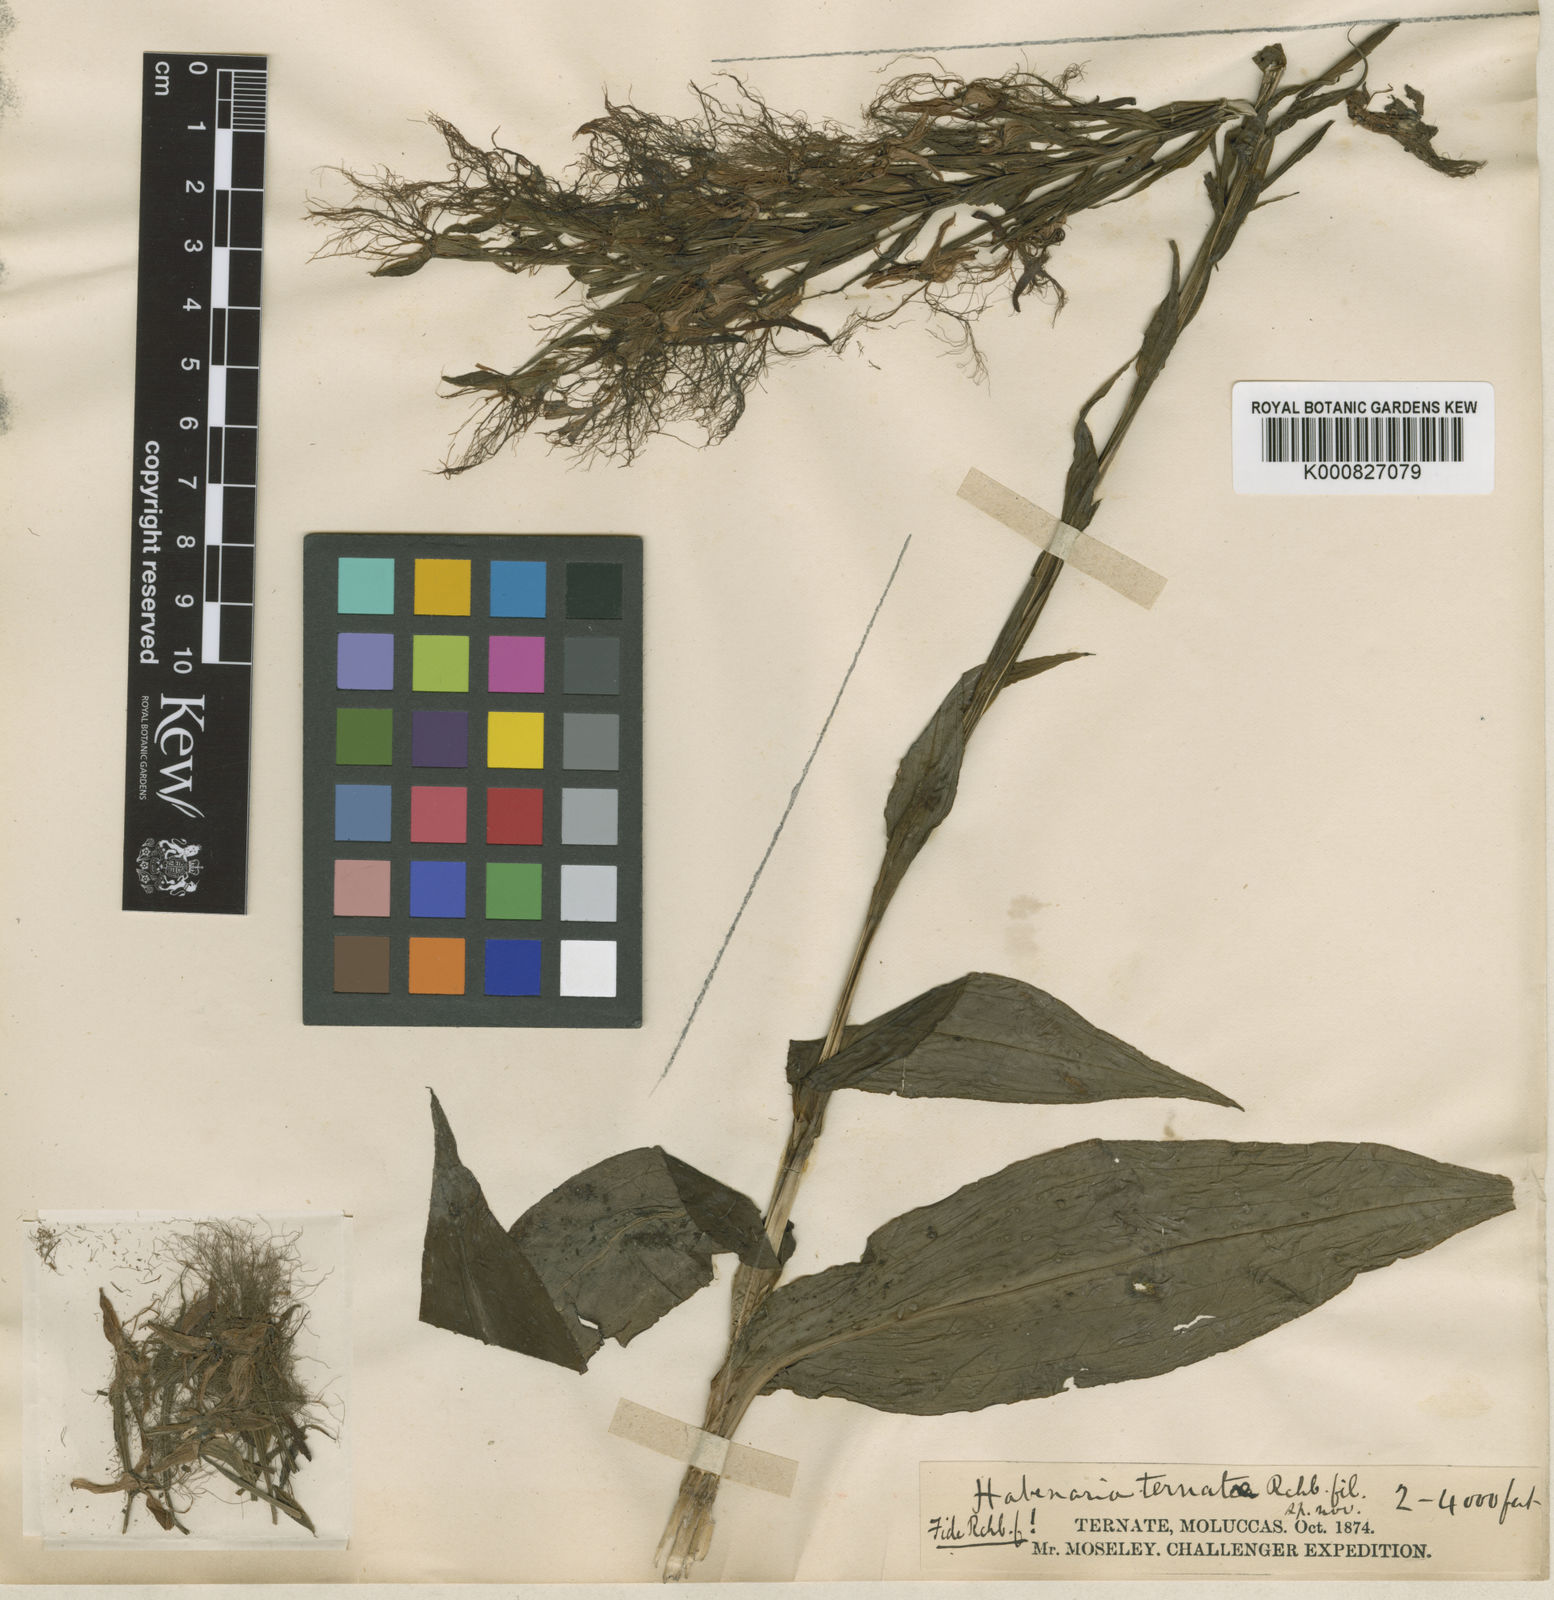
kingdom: Plantae
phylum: Tracheophyta
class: Liliopsida
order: Asparagales
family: Orchidaceae
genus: Habenaria
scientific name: Habenaria ternatea
